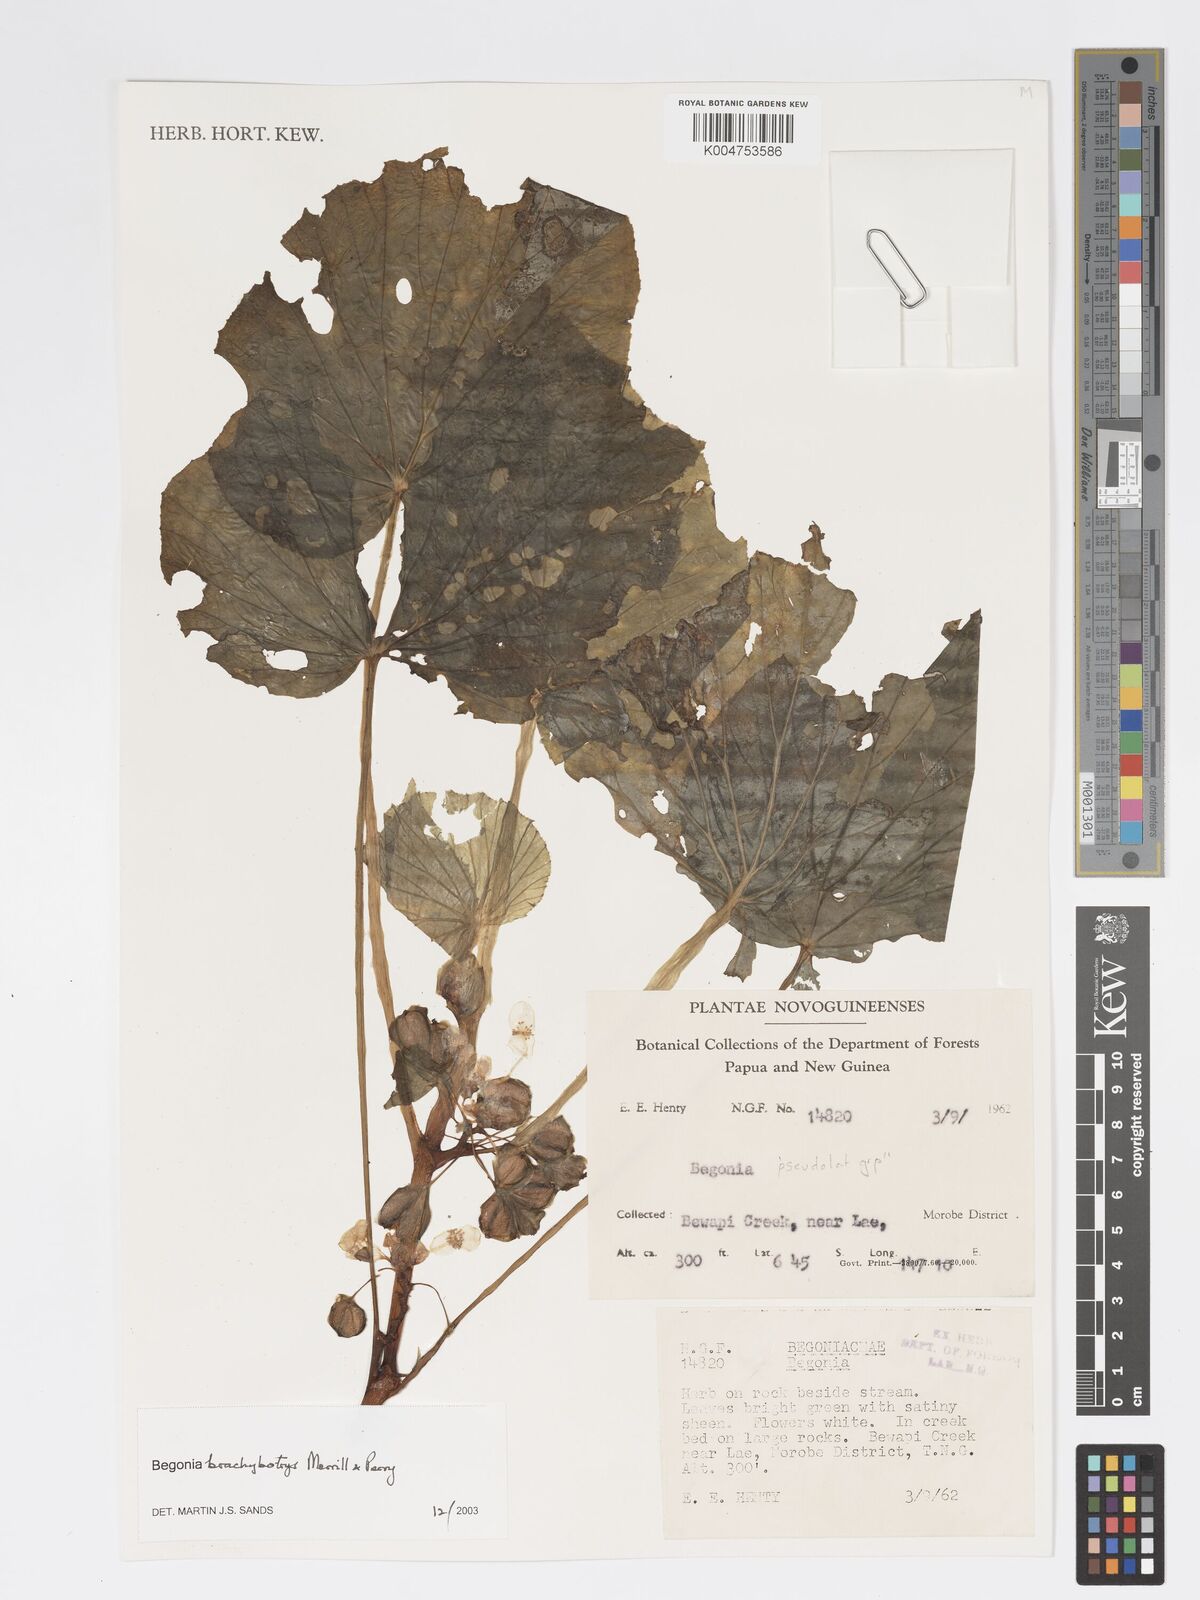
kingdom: Plantae
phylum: Tracheophyta
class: Magnoliopsida
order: Cucurbitales
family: Begoniaceae
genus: Begonia
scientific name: Begonia brachybotrys
